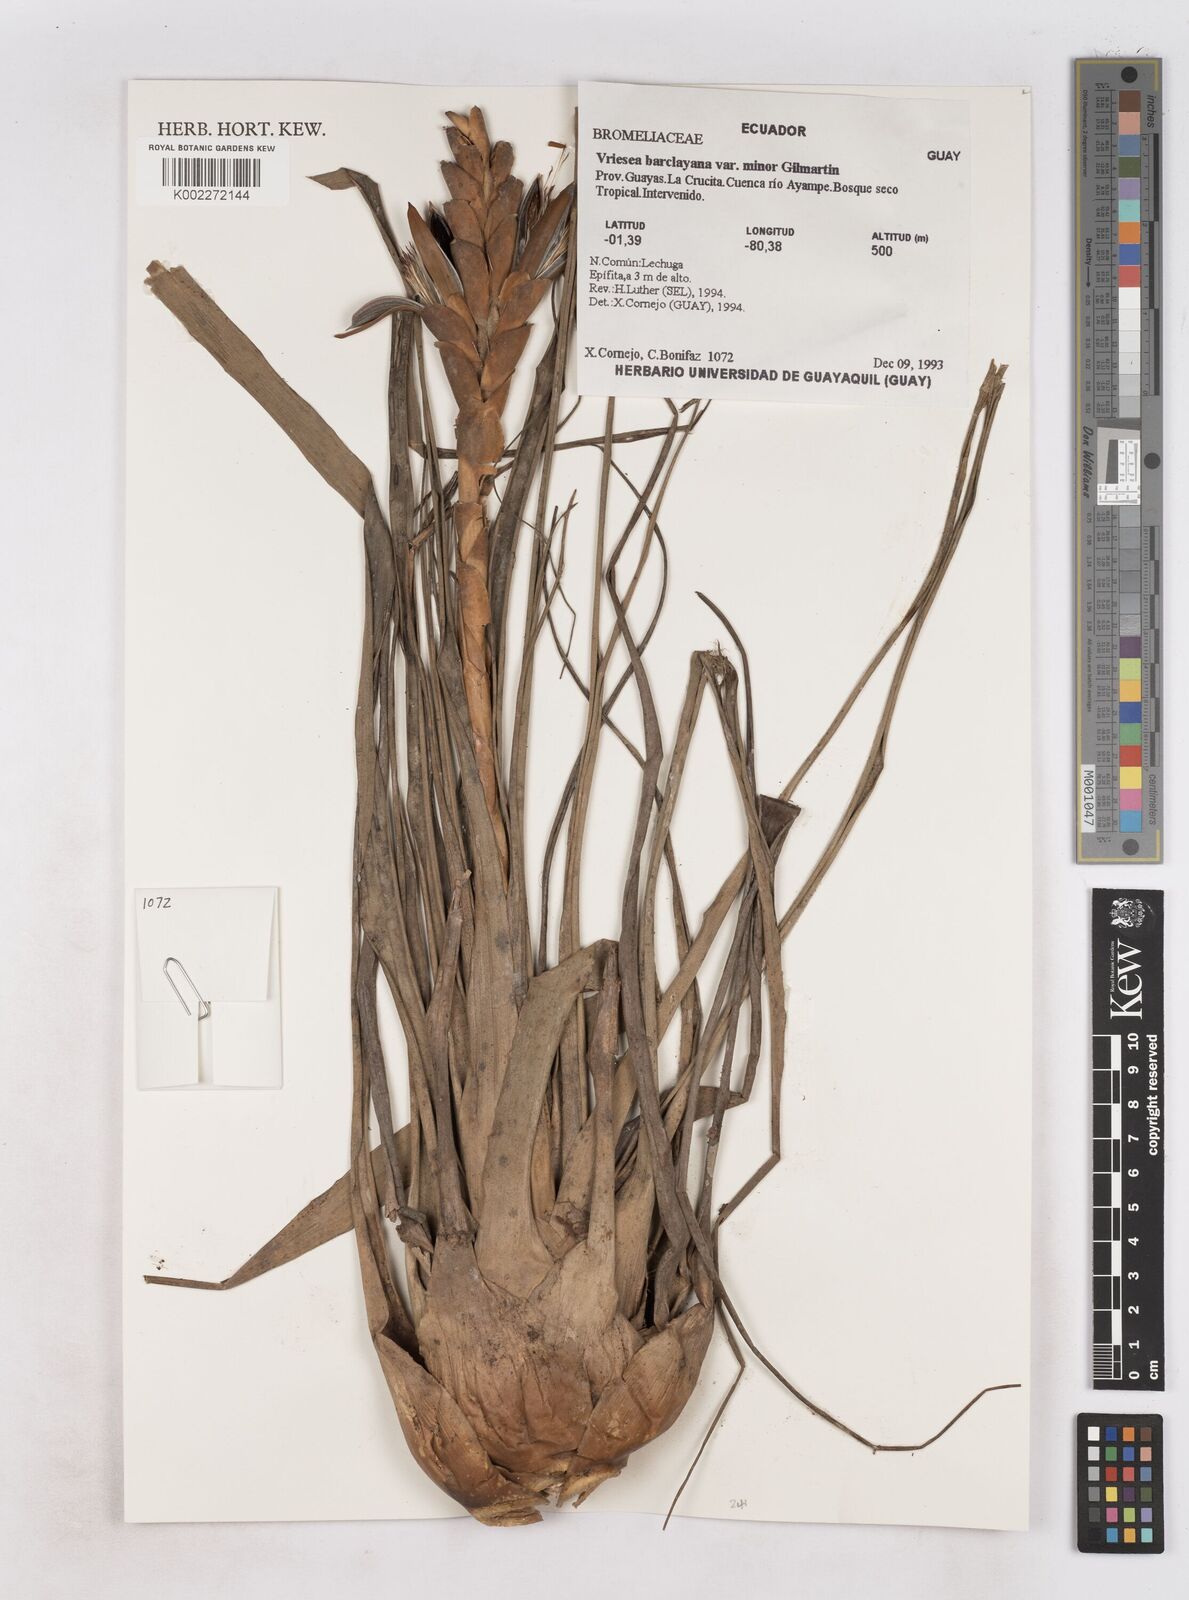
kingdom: Plantae
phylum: Tracheophyta
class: Liliopsida
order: Poales
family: Bromeliaceae
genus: Tillandsia
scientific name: Tillandsia barclayana
